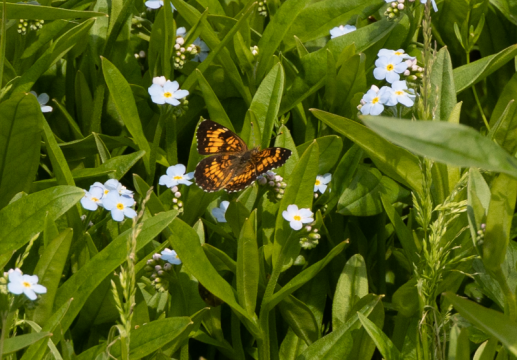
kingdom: Animalia
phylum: Arthropoda
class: Insecta
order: Lepidoptera
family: Nymphalidae
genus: Chlosyne
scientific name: Chlosyne harrisii
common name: Harris's Checkerspot
